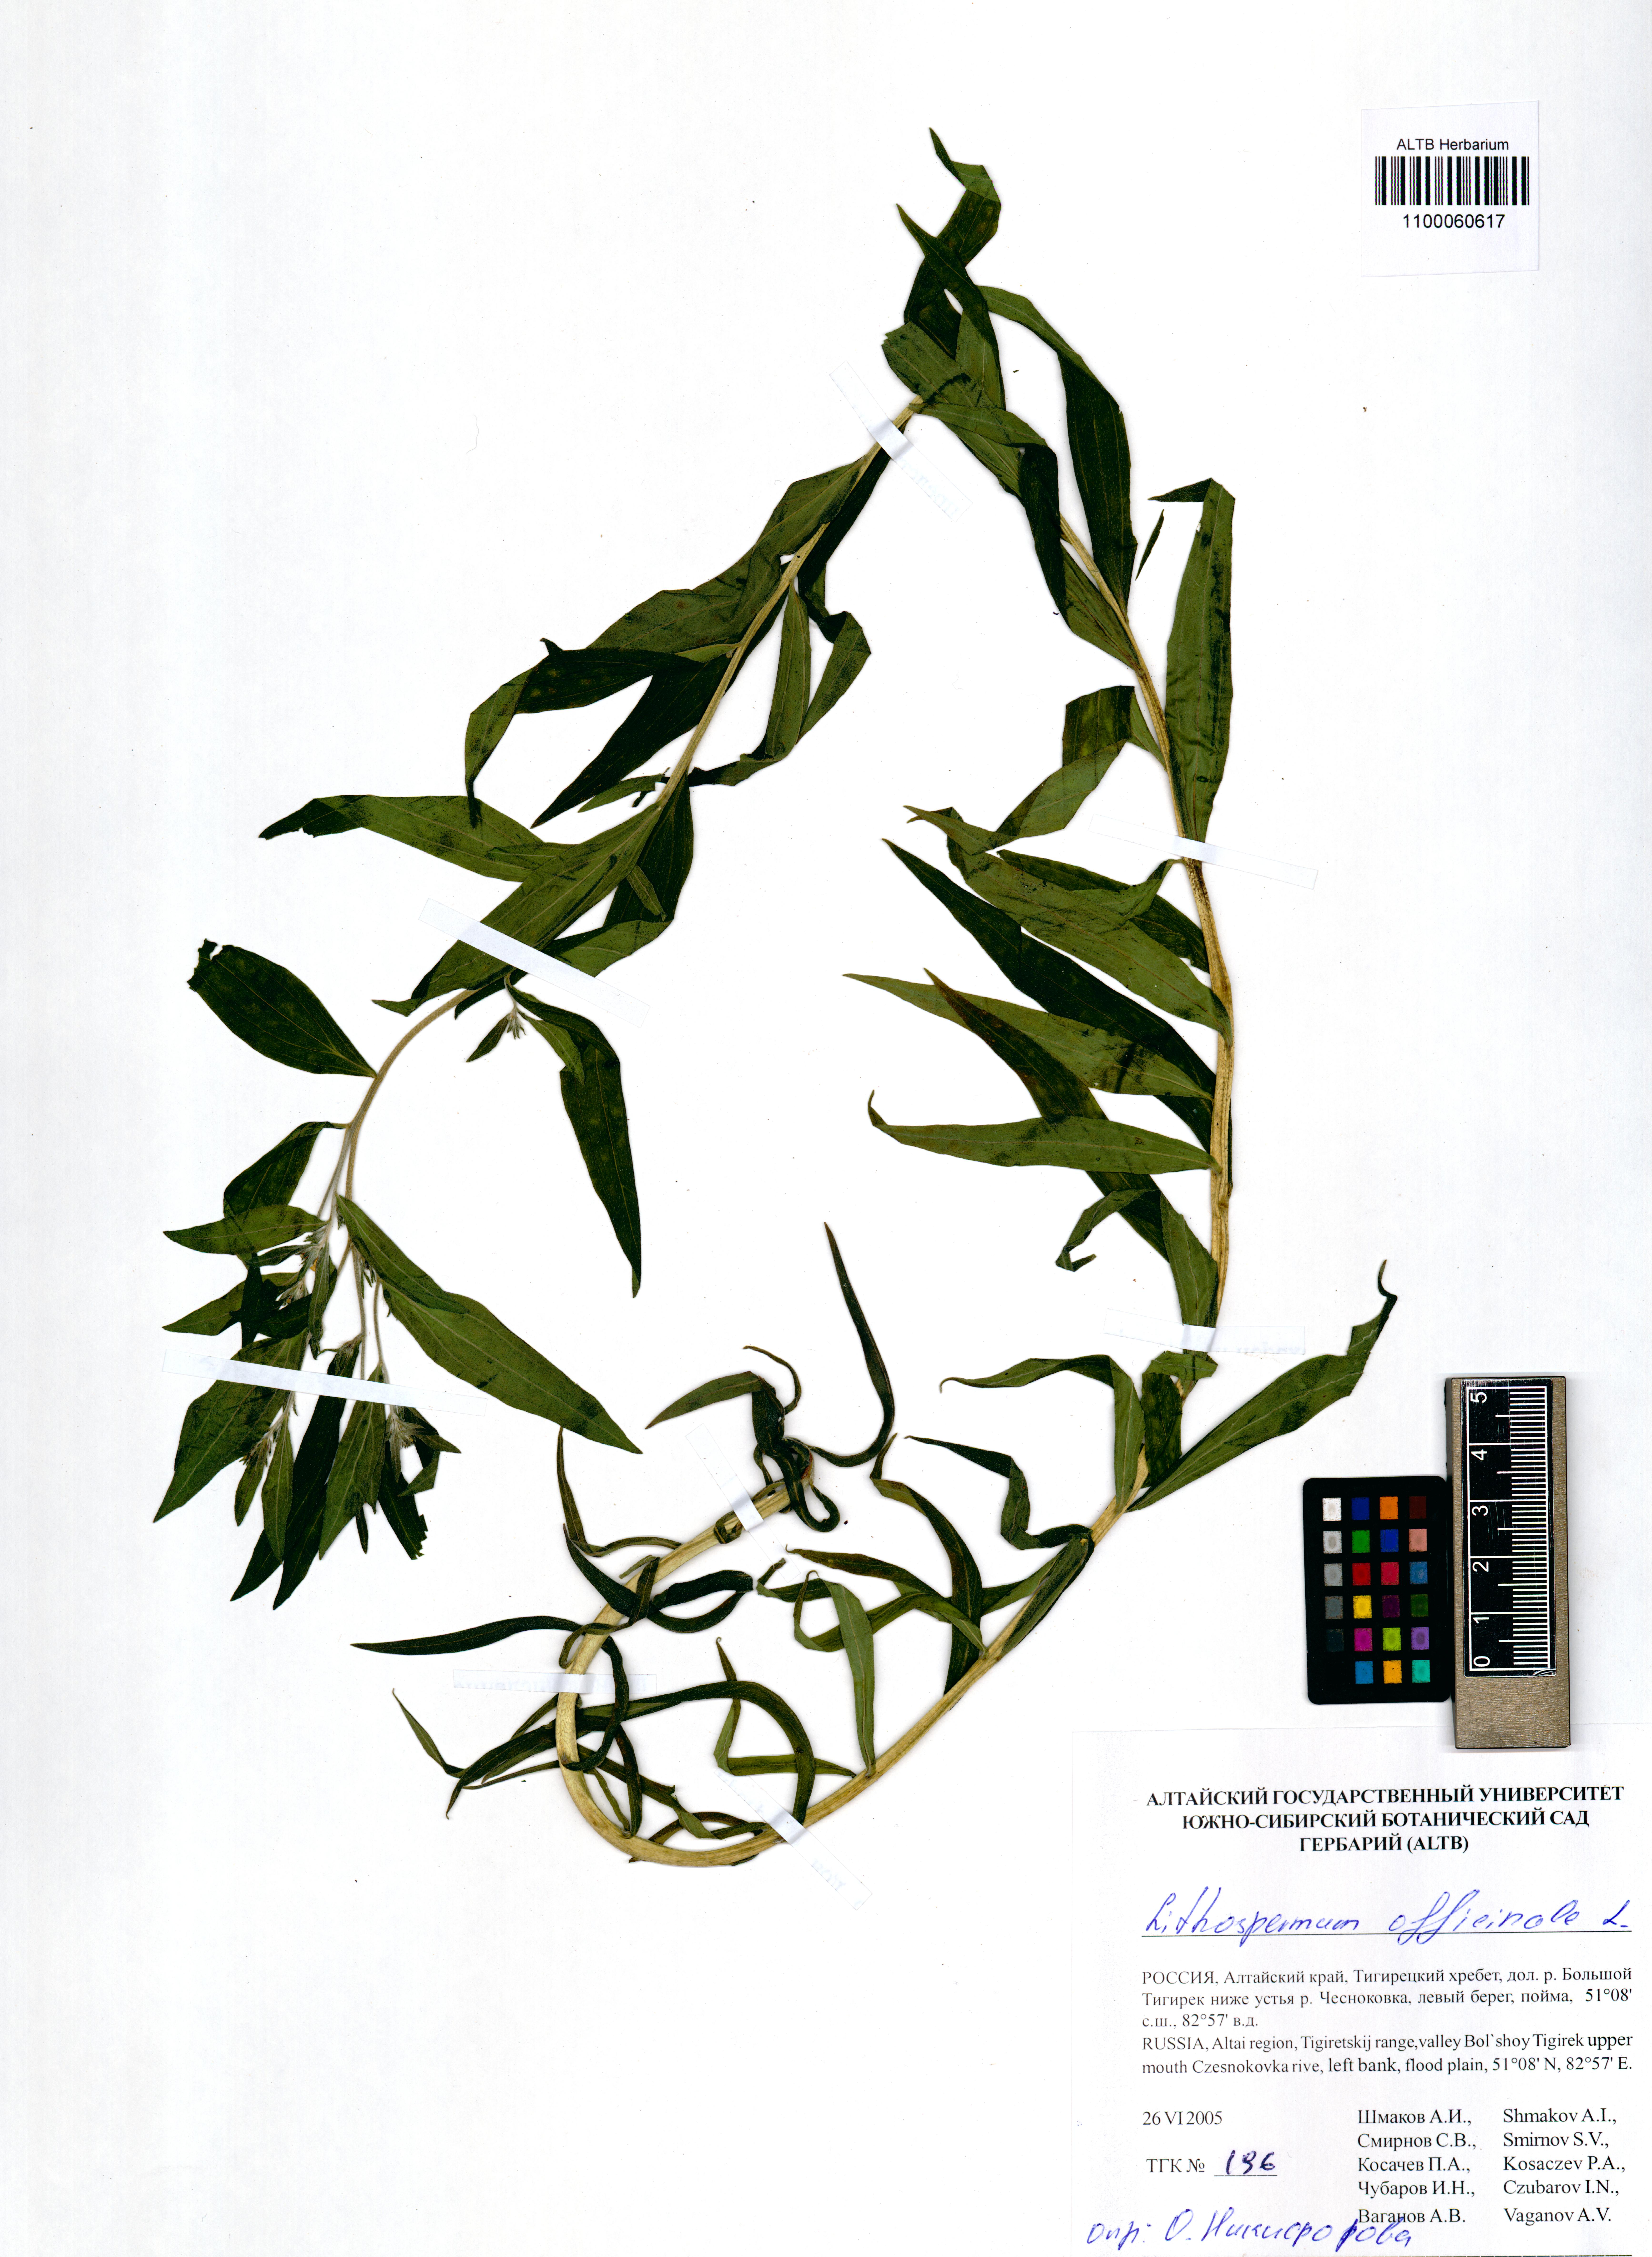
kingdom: Plantae
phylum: Tracheophyta
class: Magnoliopsida
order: Boraginales
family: Boraginaceae
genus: Lithospermum
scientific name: Lithospermum officinale
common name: Common gromwell
